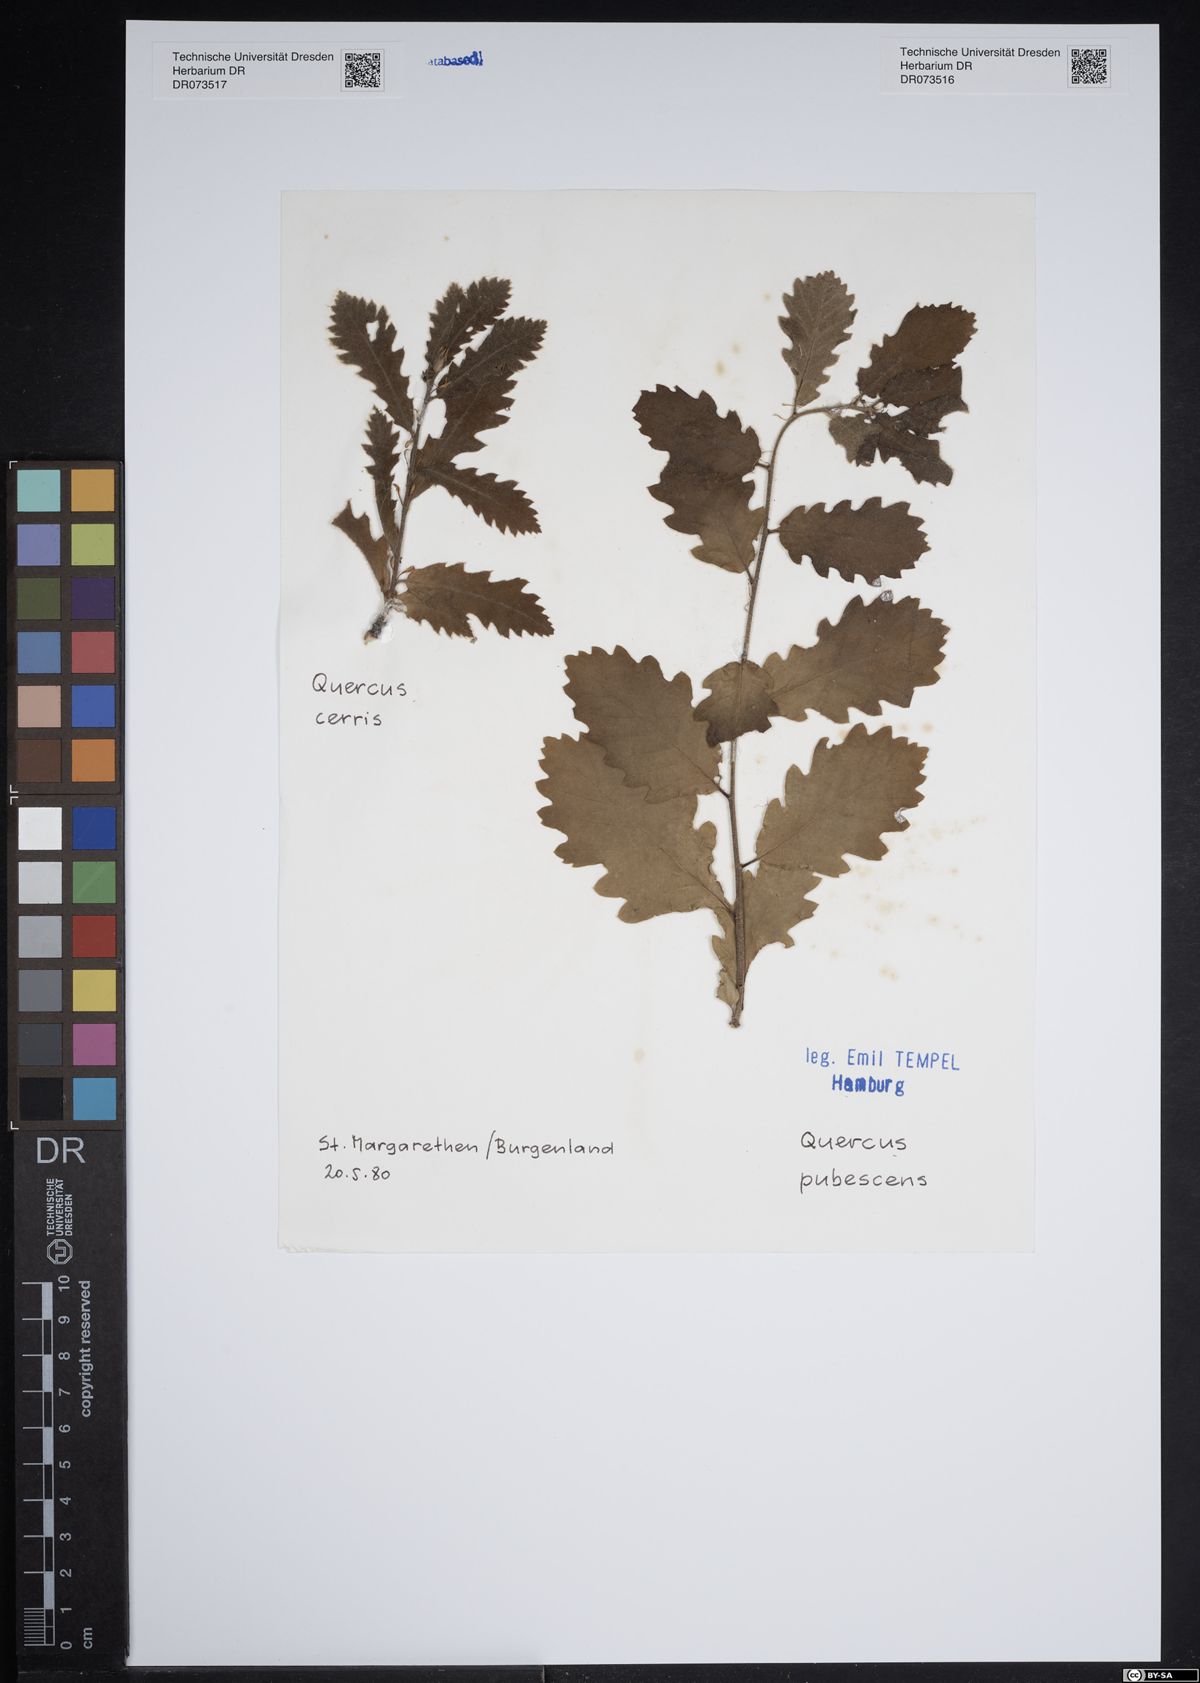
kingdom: Plantae
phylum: Tracheophyta
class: Magnoliopsida
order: Fagales
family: Fagaceae
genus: Quercus
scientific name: Quercus cerris
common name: Turkey oak
